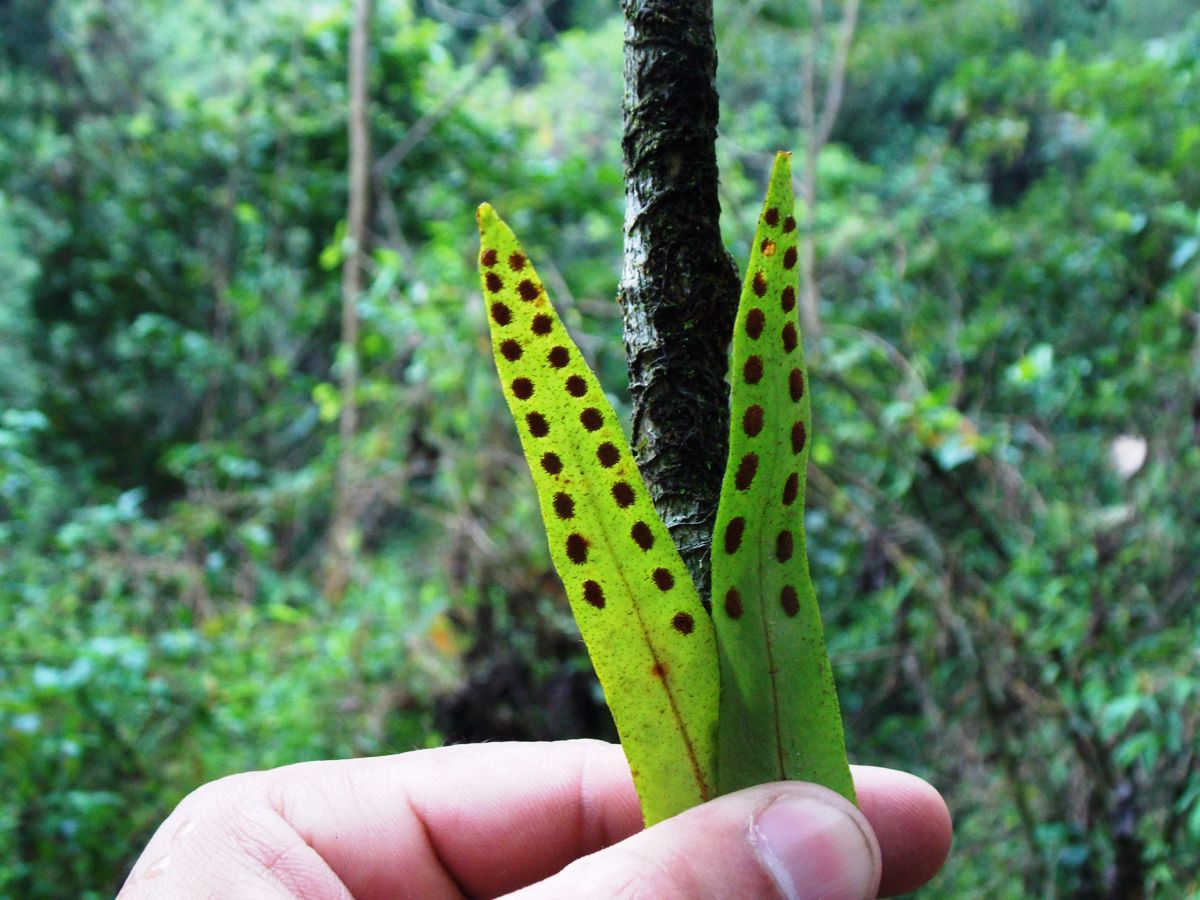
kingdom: Plantae
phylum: Tracheophyta
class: Polypodiopsida
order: Polypodiales
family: Polypodiaceae
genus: Pleopeltis
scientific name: Pleopeltis astrolepis
